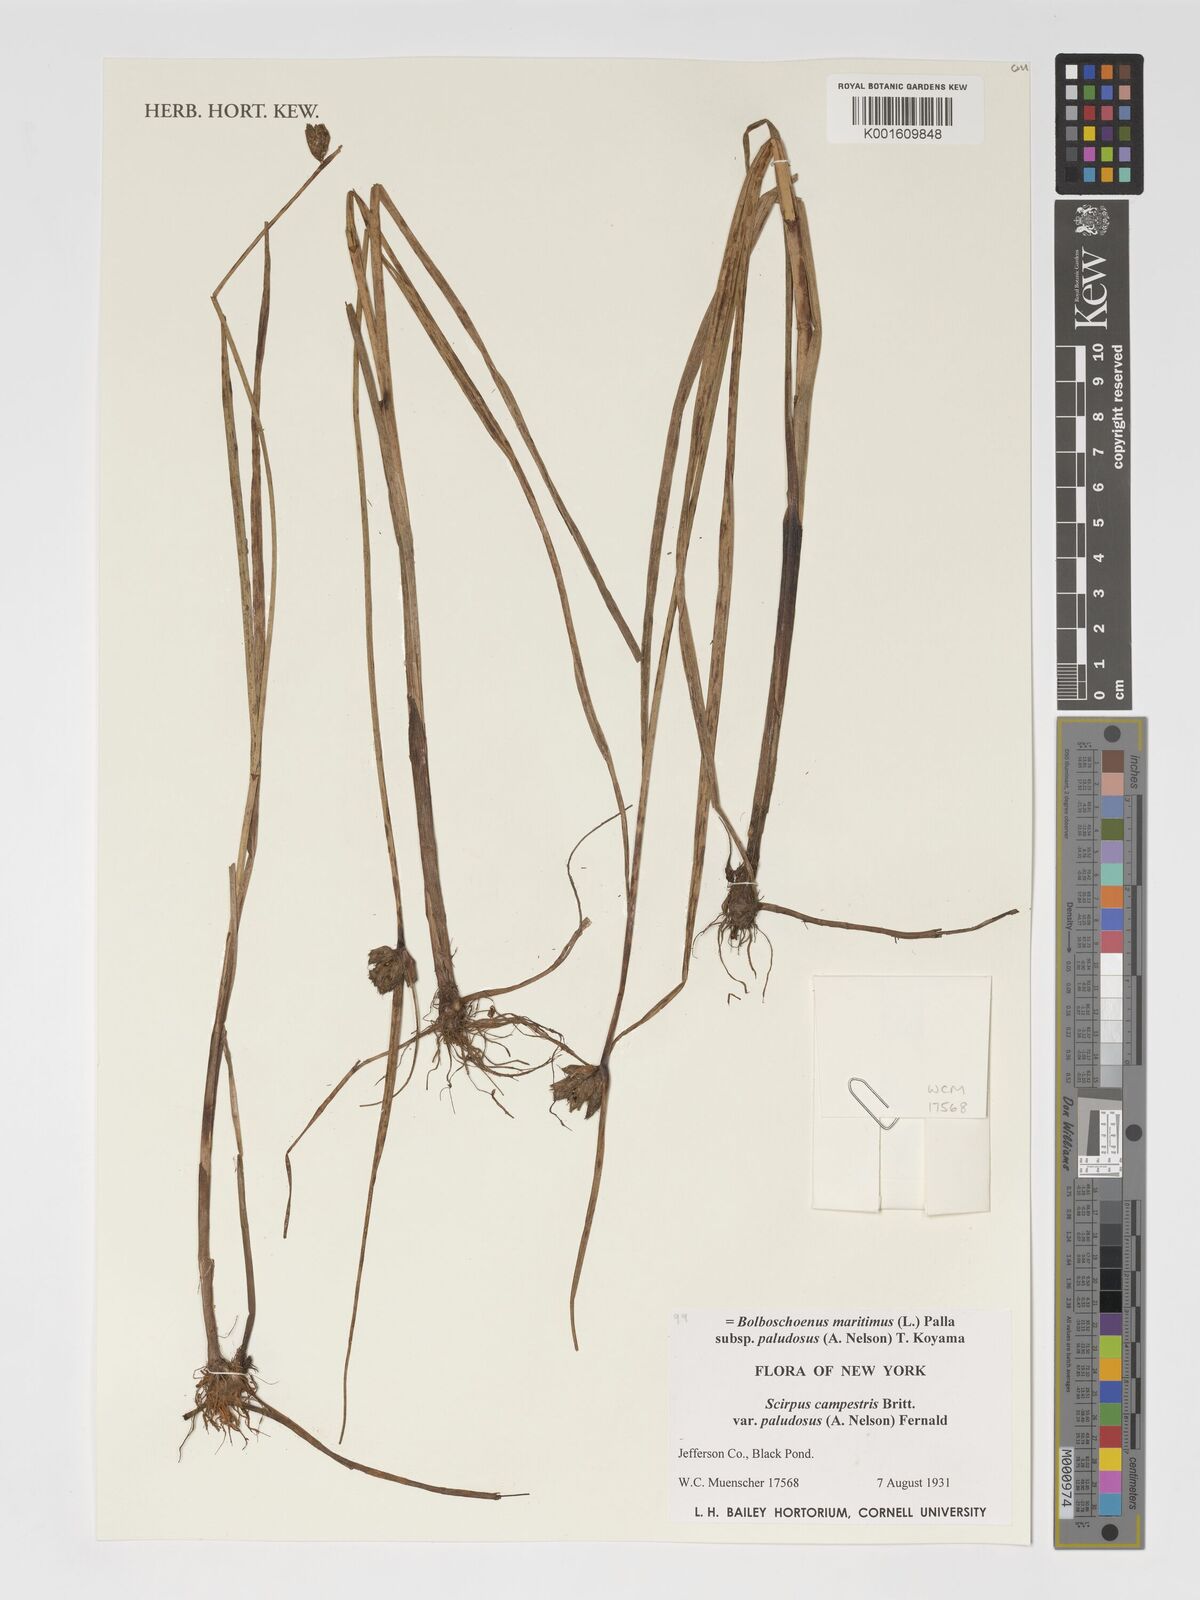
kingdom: Plantae
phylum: Tracheophyta
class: Liliopsida
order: Poales
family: Cyperaceae
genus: Bolboschoenus
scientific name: Bolboschoenus maritimus
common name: Sea club-rush
